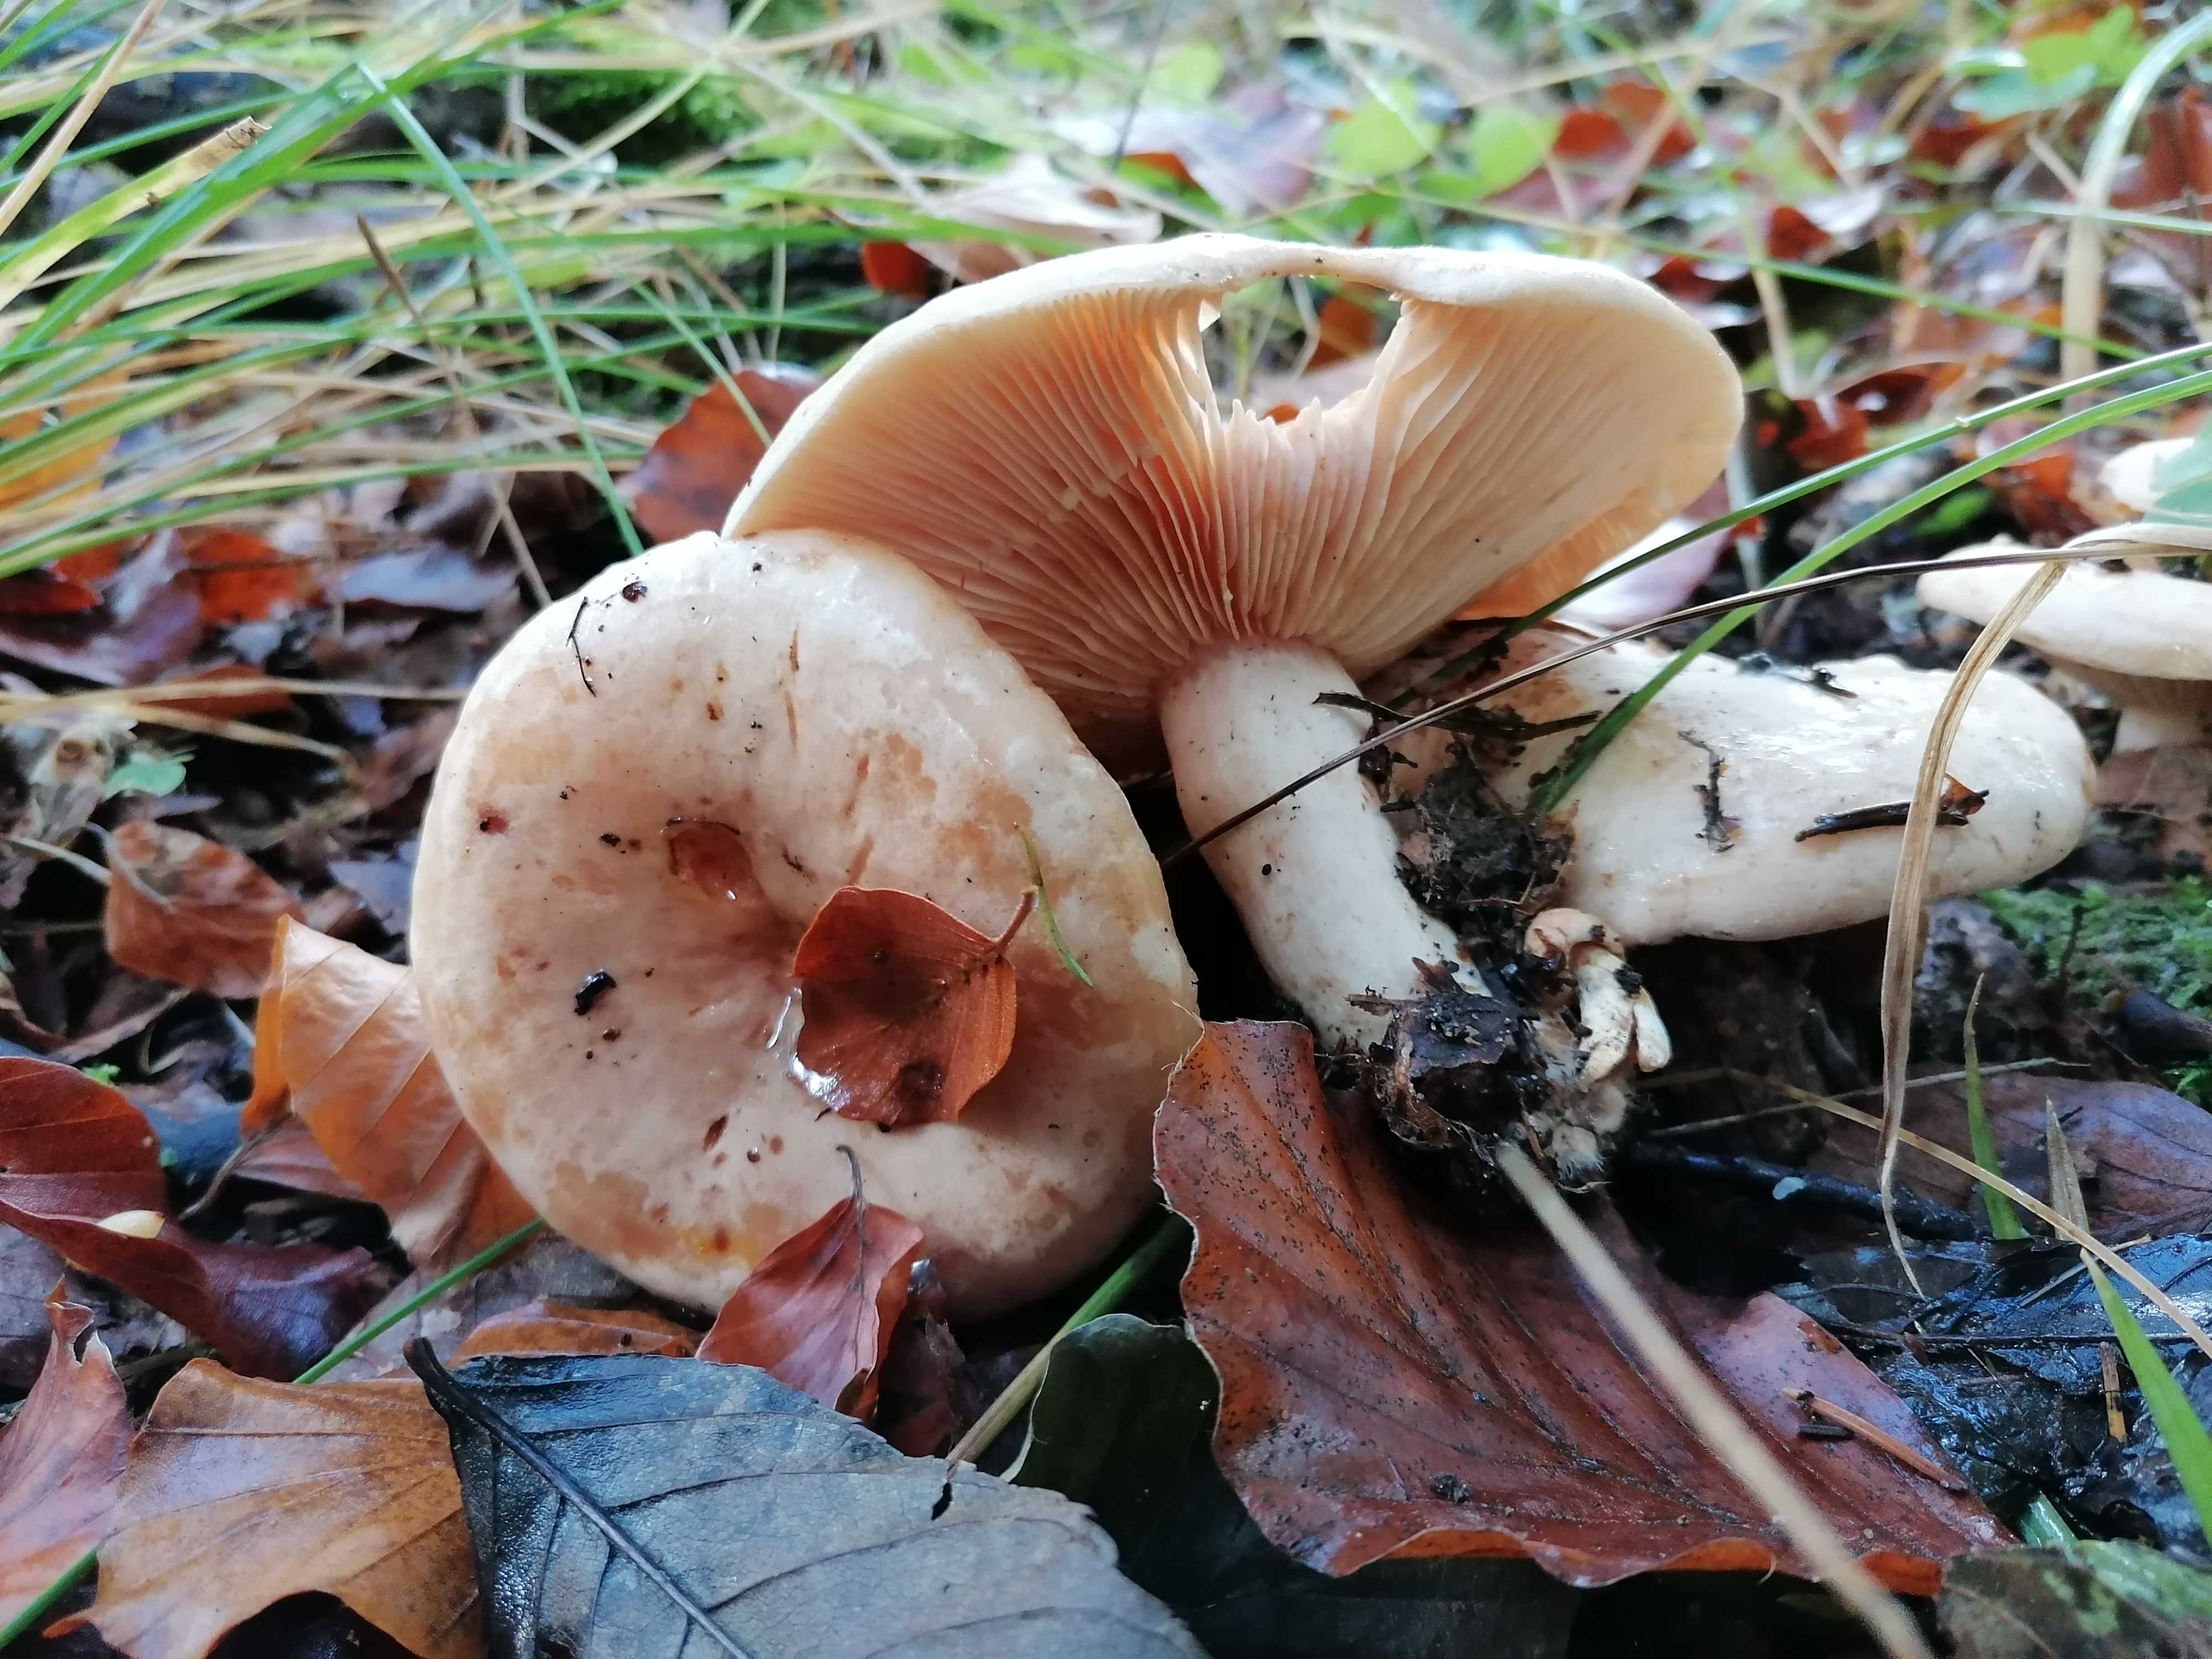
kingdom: Fungi
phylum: Basidiomycota
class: Agaricomycetes
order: Russulales
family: Russulaceae
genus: Lactarius
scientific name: Lactarius pallidus
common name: bleg mælkehat
